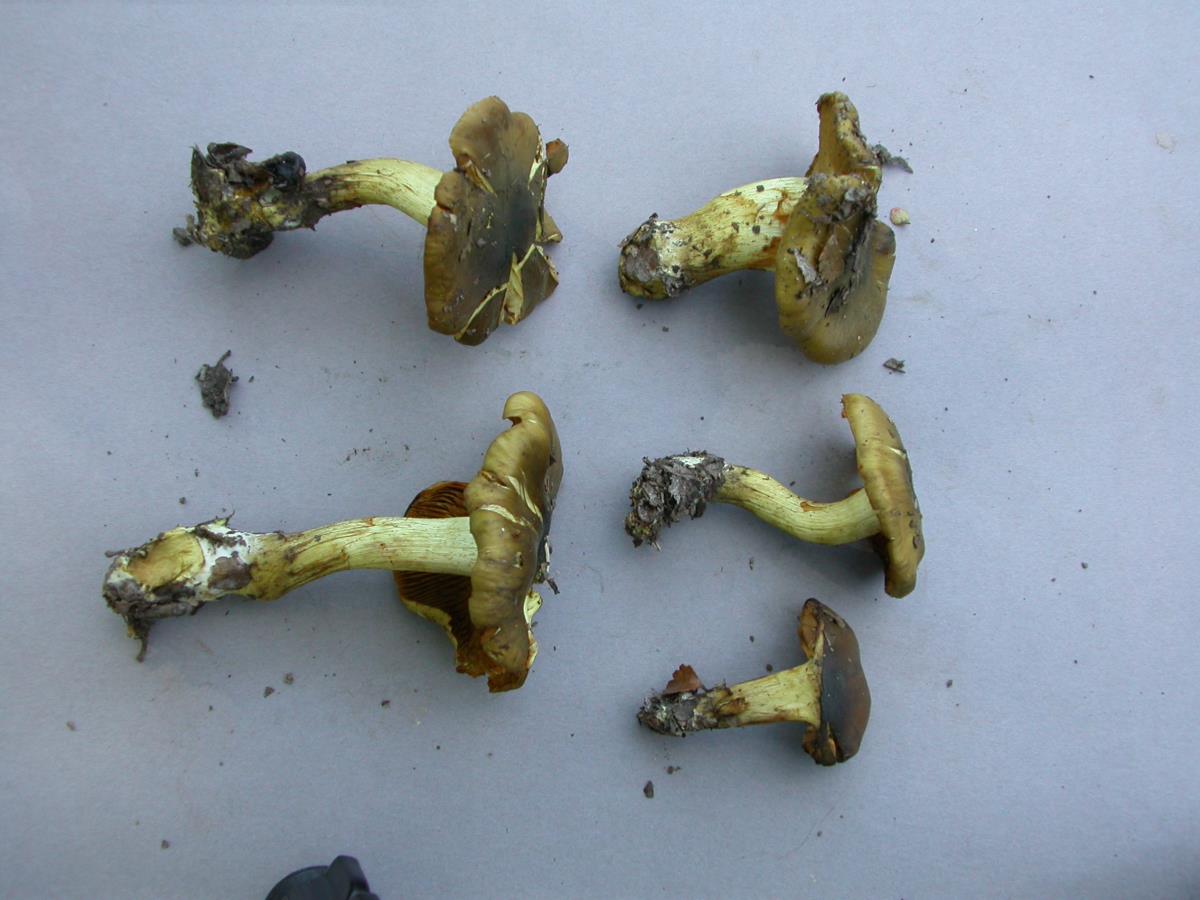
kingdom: Fungi
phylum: Basidiomycota
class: Agaricomycetes
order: Agaricales
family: Cortinariaceae
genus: Cortinarius
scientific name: Cortinarius olivaceoniger
